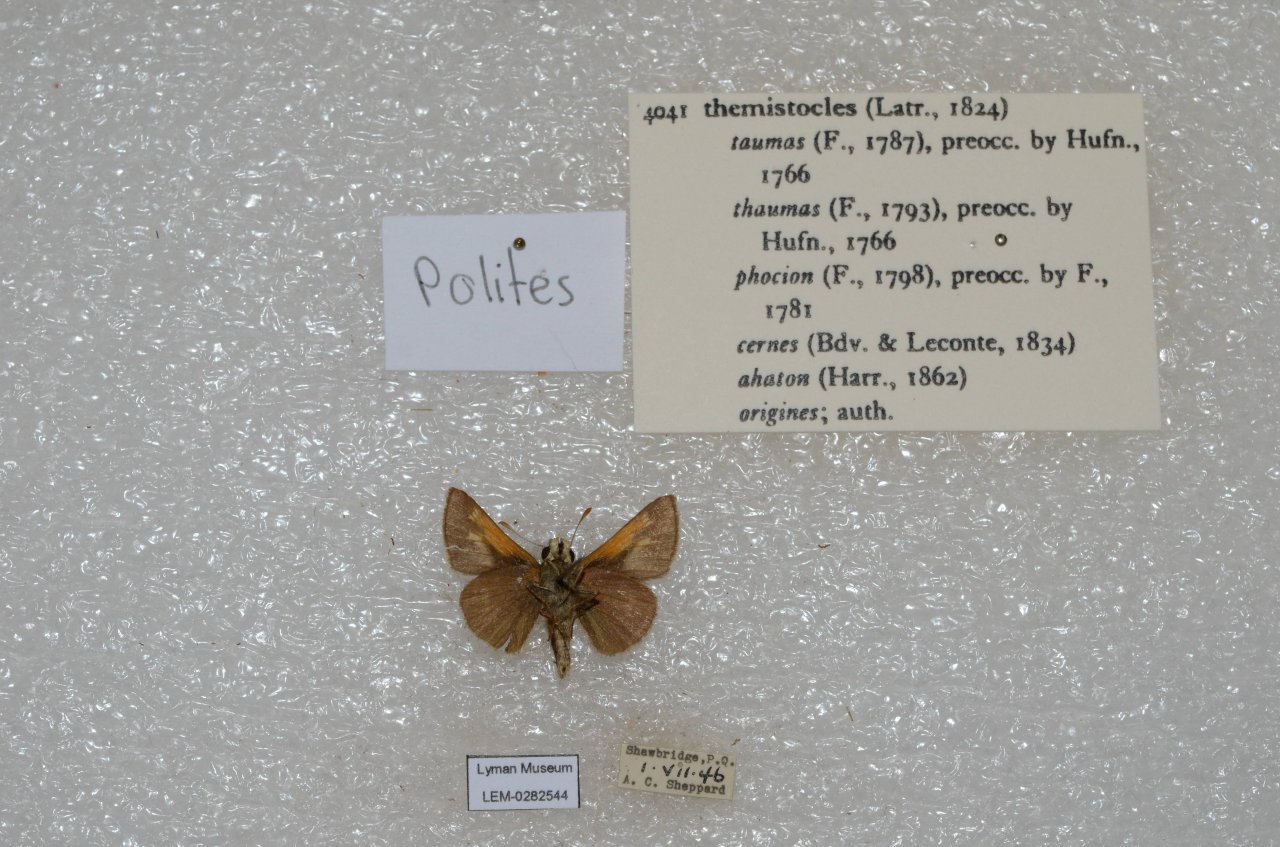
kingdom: Animalia
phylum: Arthropoda
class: Insecta
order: Lepidoptera
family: Hesperiidae
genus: Polites
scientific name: Polites themistocles
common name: Tawny-edged Skipper
